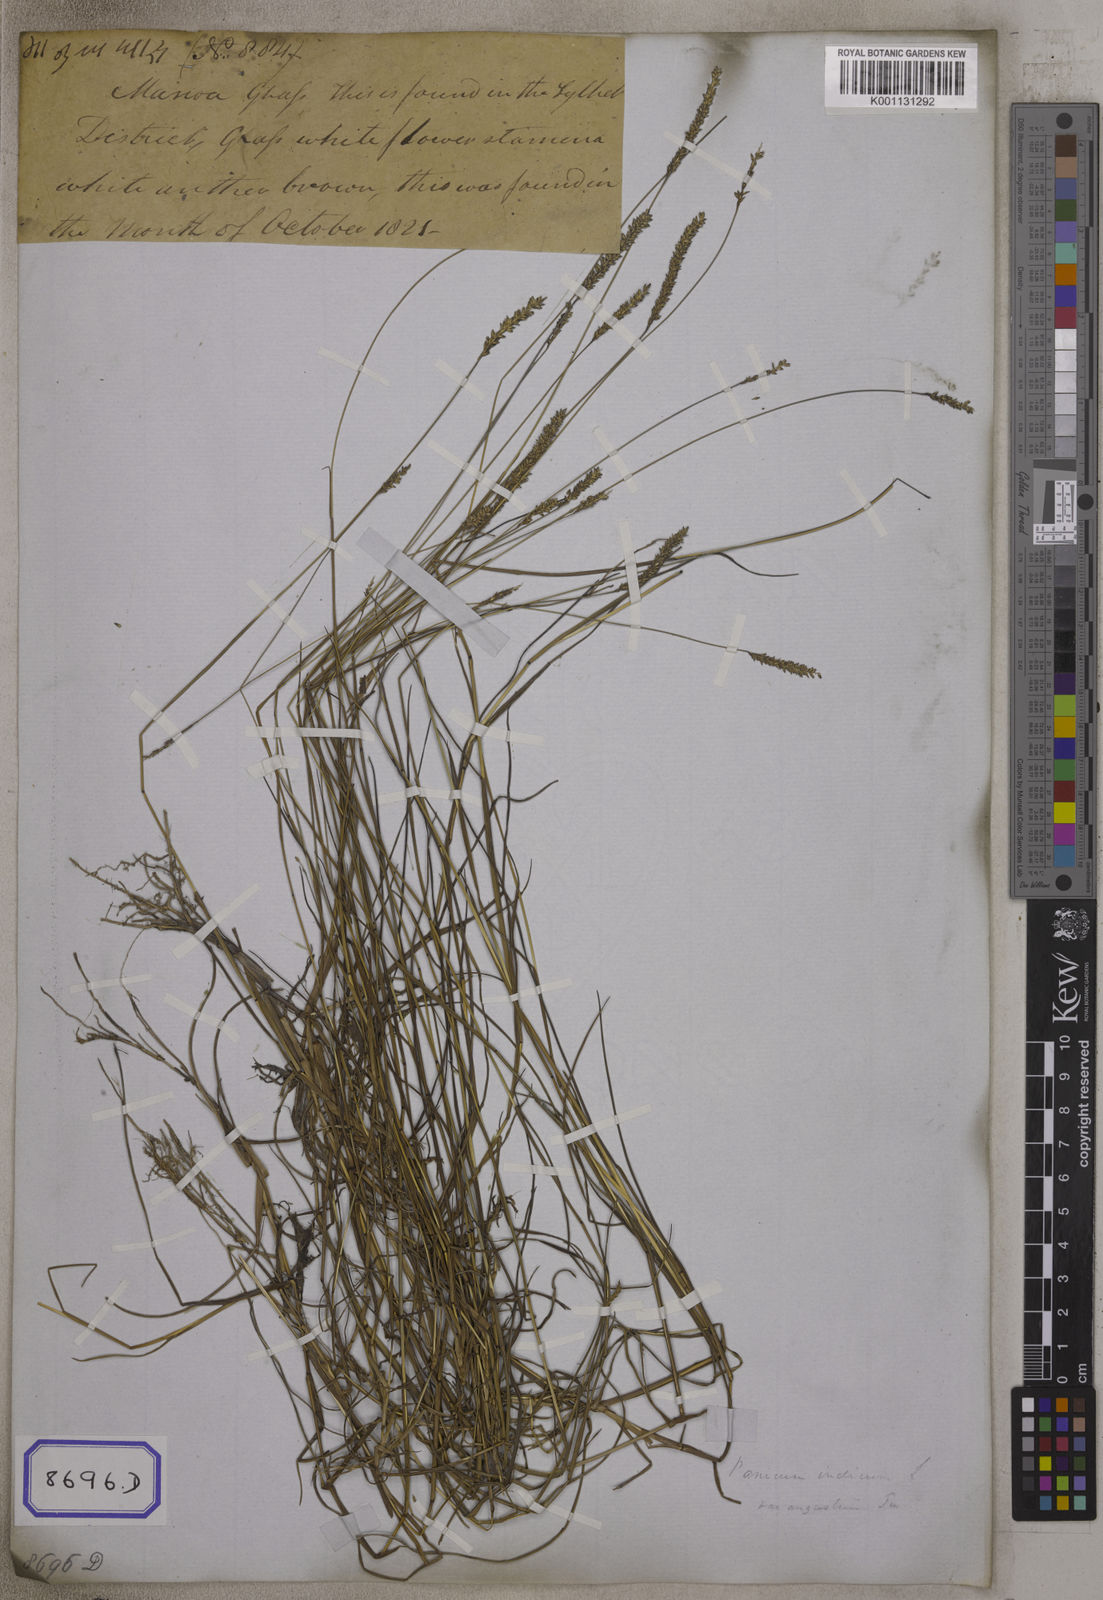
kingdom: Plantae
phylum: Tracheophyta
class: Liliopsida
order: Poales
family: Poaceae
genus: Panicum
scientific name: Panicum
